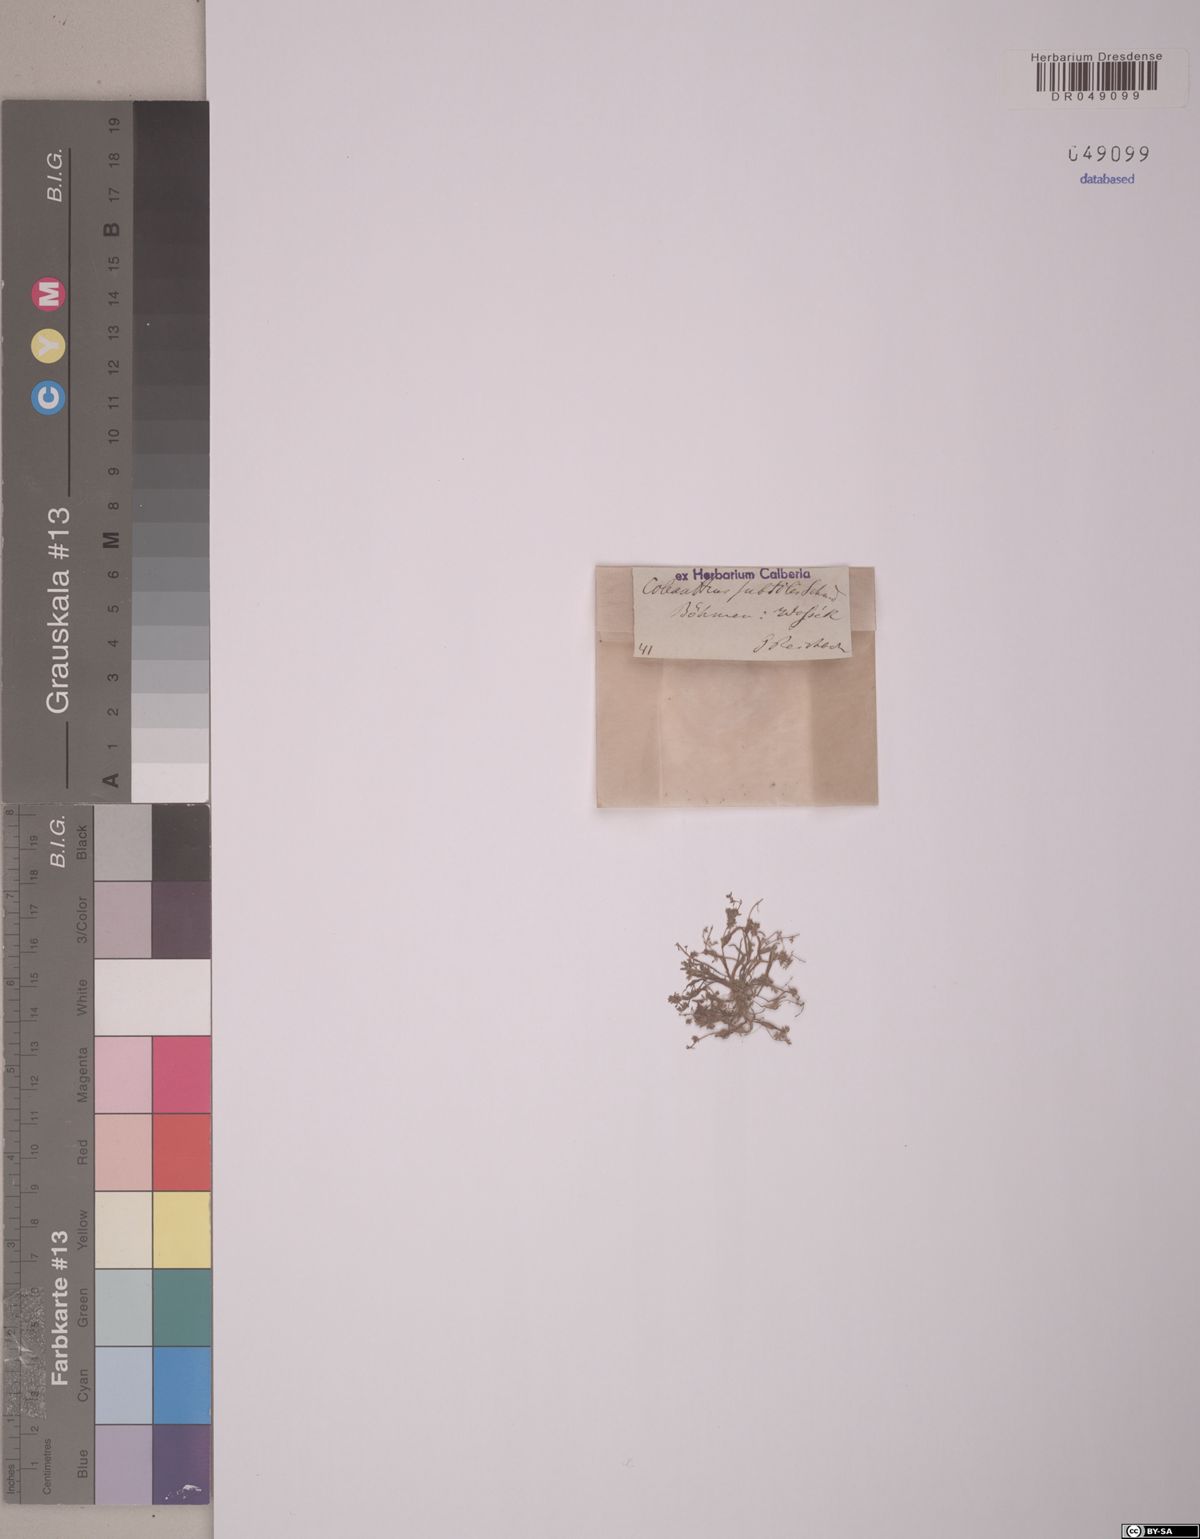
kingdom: Plantae
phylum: Tracheophyta
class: Liliopsida
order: Poales
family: Poaceae
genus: Coleanthus
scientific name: Coleanthus subtilis
